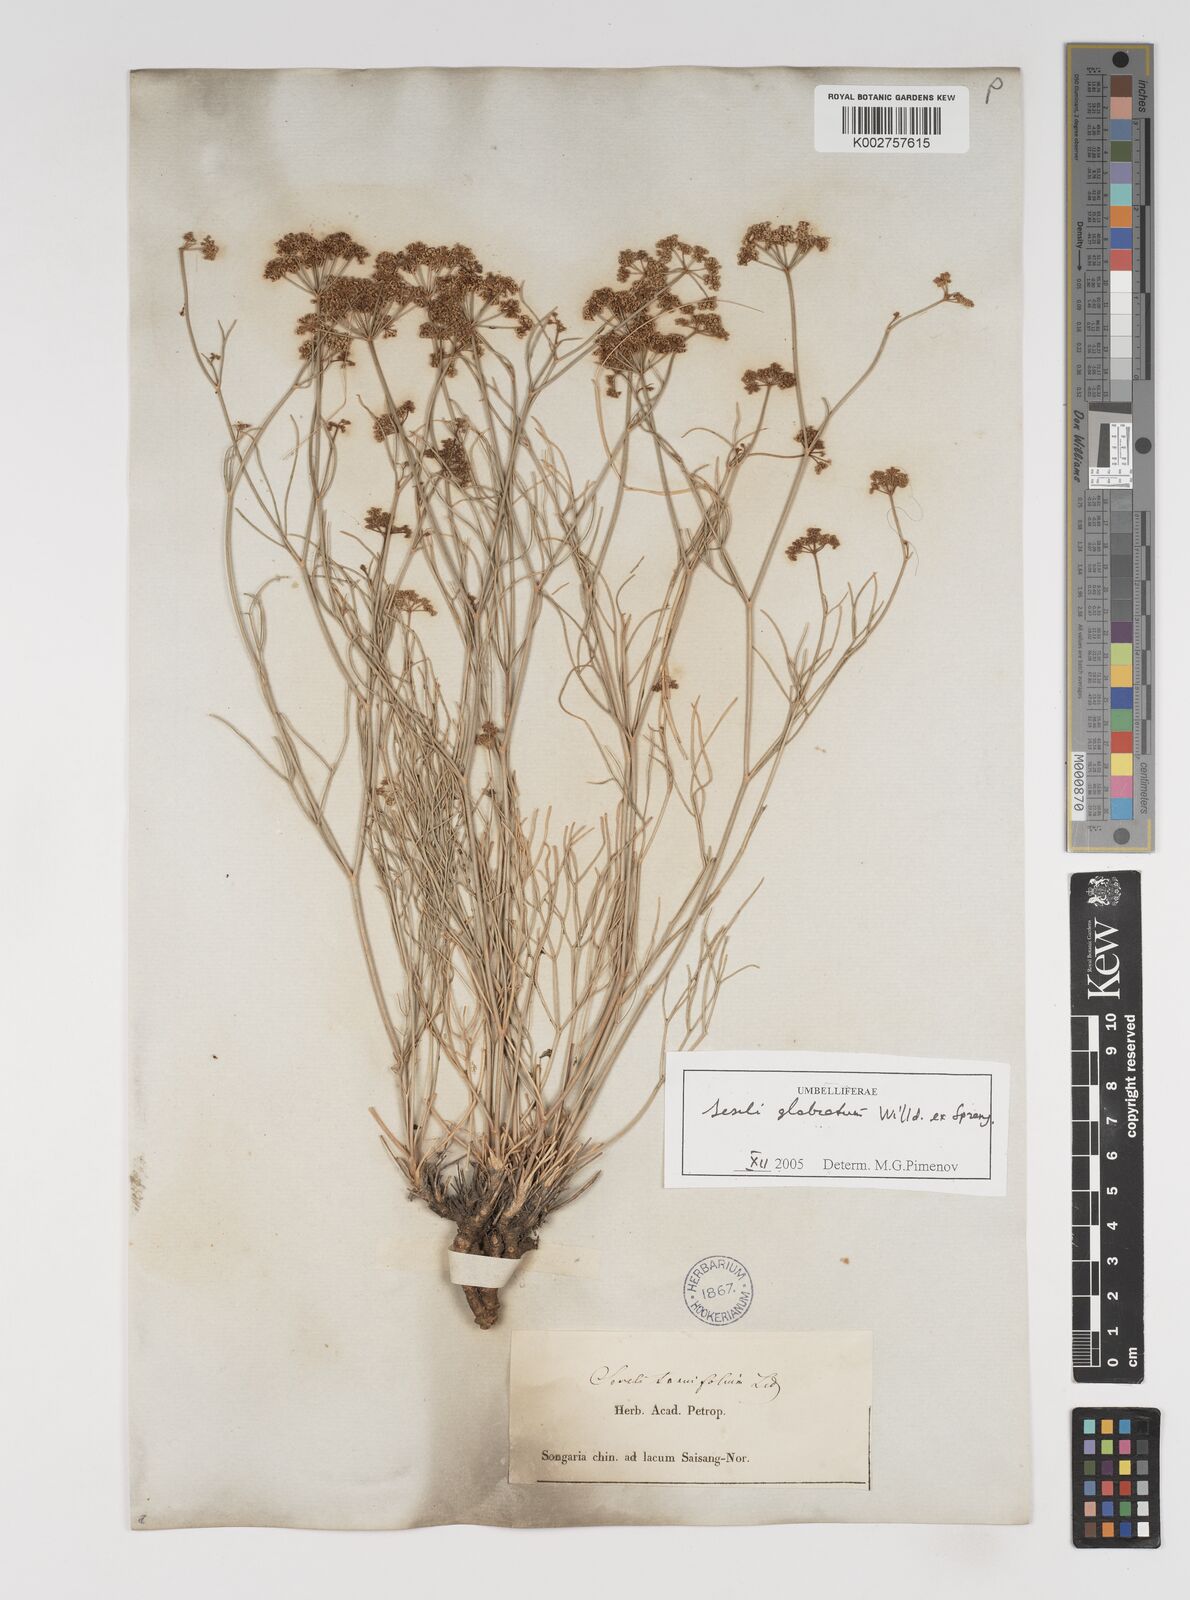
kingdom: Plantae
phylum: Tracheophyta
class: Magnoliopsida
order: Apiales
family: Apiaceae
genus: Seseli
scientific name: Seseli glabratum
